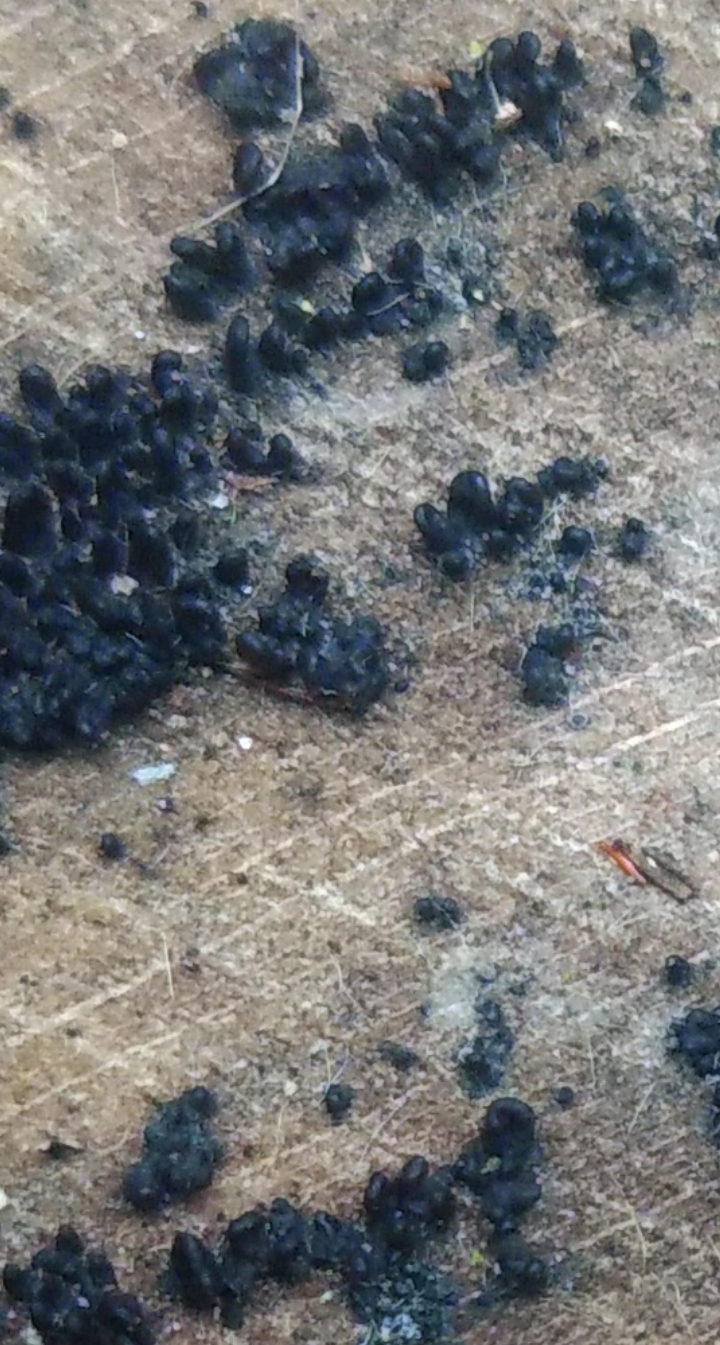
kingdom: Fungi
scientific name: Fungi
